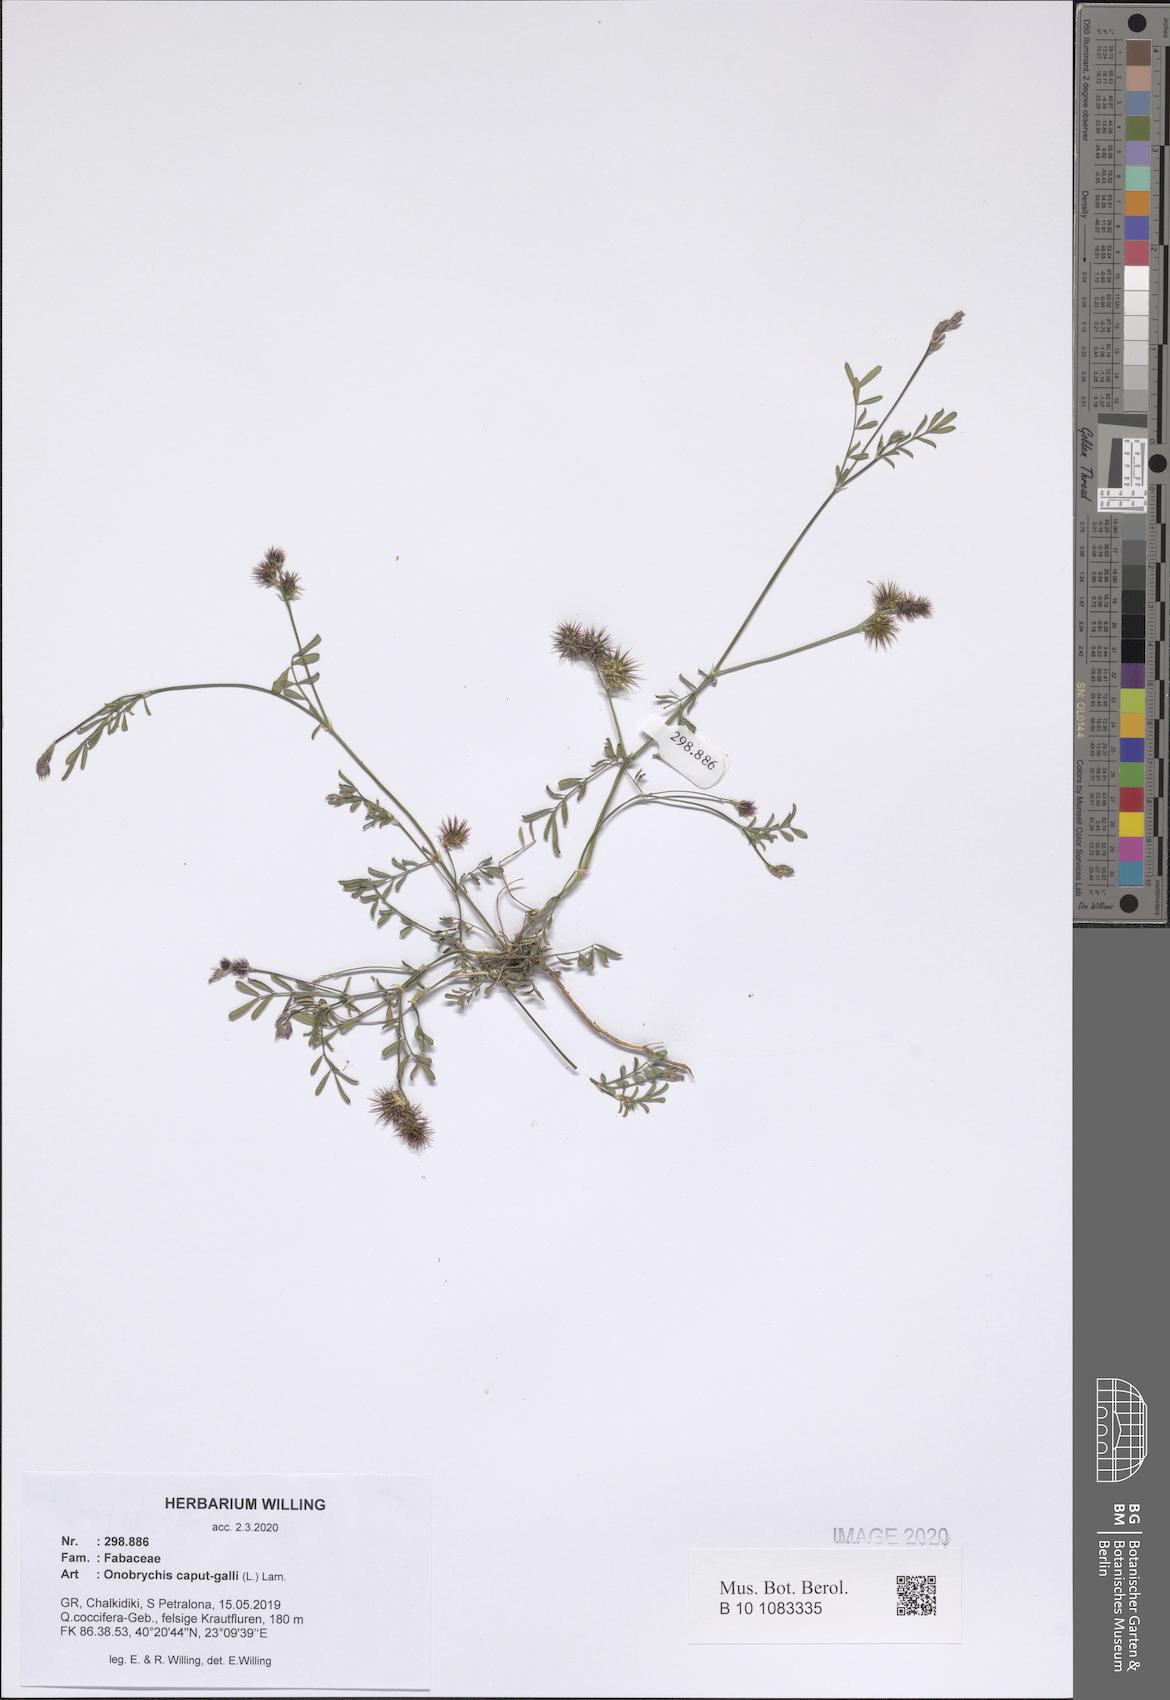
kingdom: Plantae
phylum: Tracheophyta
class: Magnoliopsida
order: Fabales
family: Fabaceae
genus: Onobrychis
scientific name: Onobrychis caput-galli
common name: Cockscomb sainfoin
